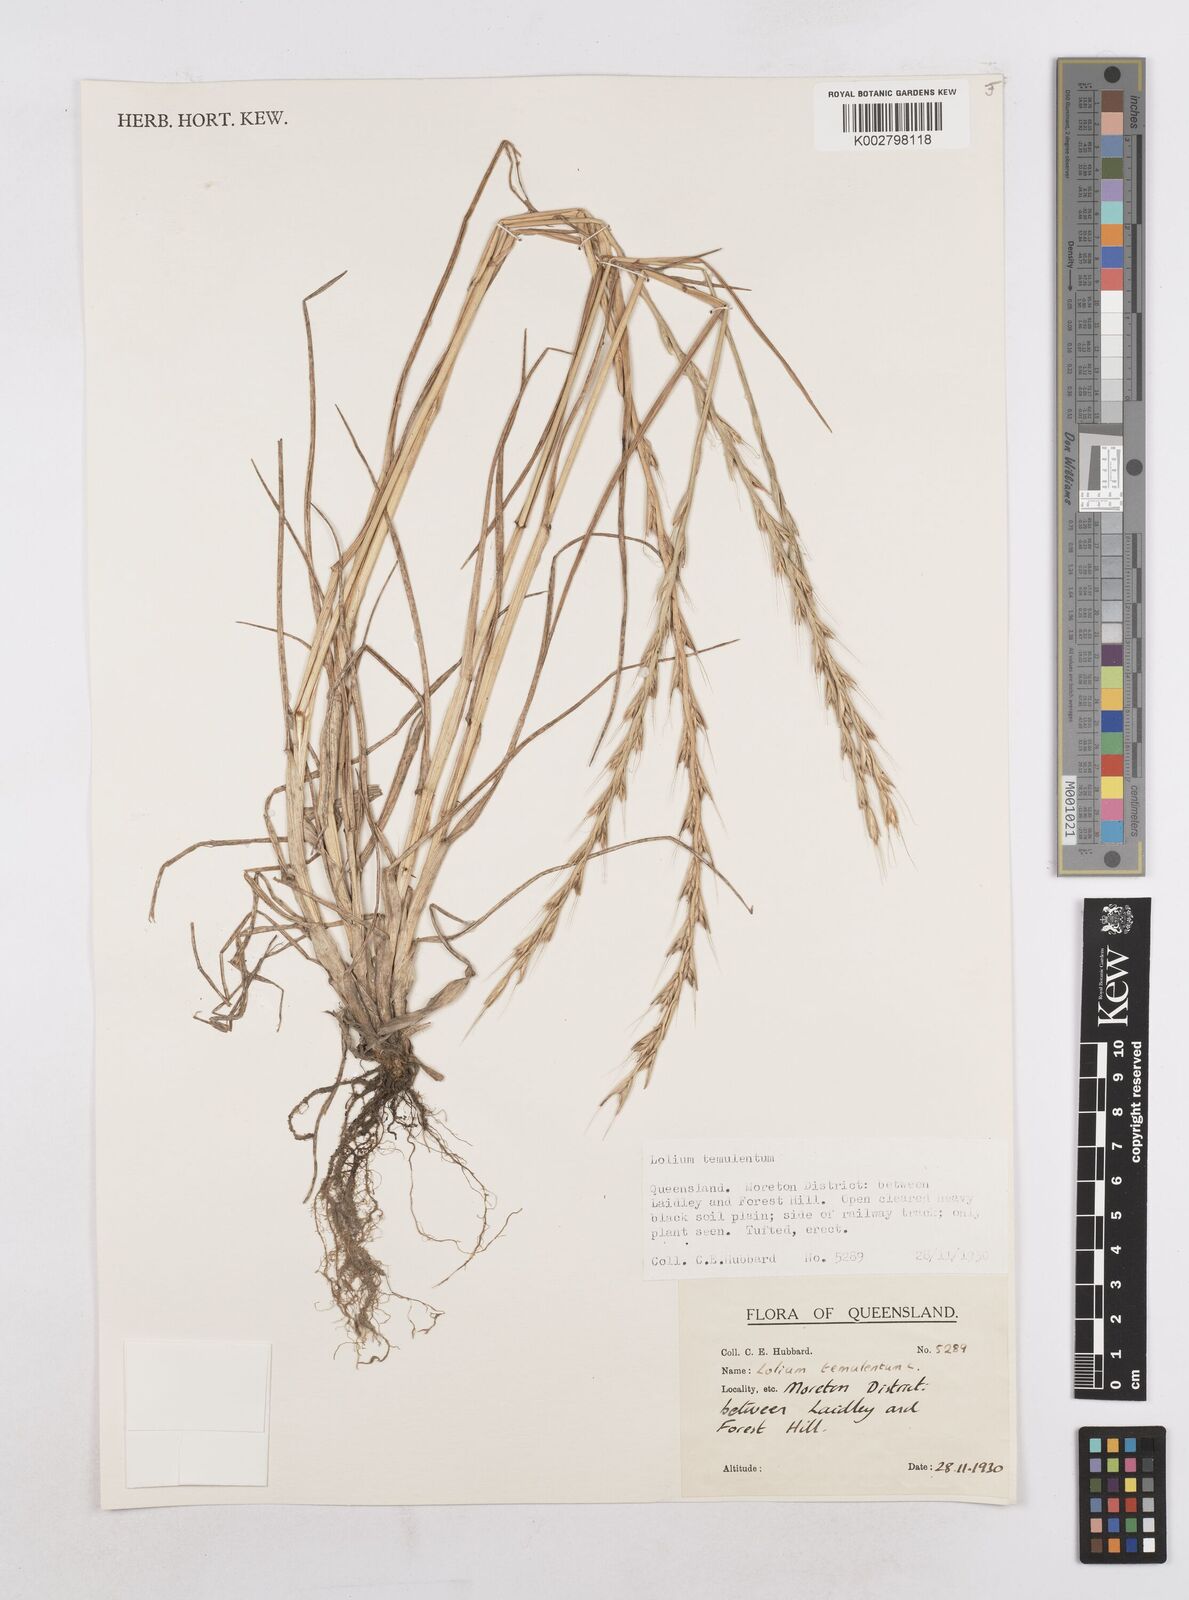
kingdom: Plantae
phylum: Tracheophyta
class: Liliopsida
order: Poales
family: Poaceae
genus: Lolium
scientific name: Lolium temulentum
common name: Darnel
